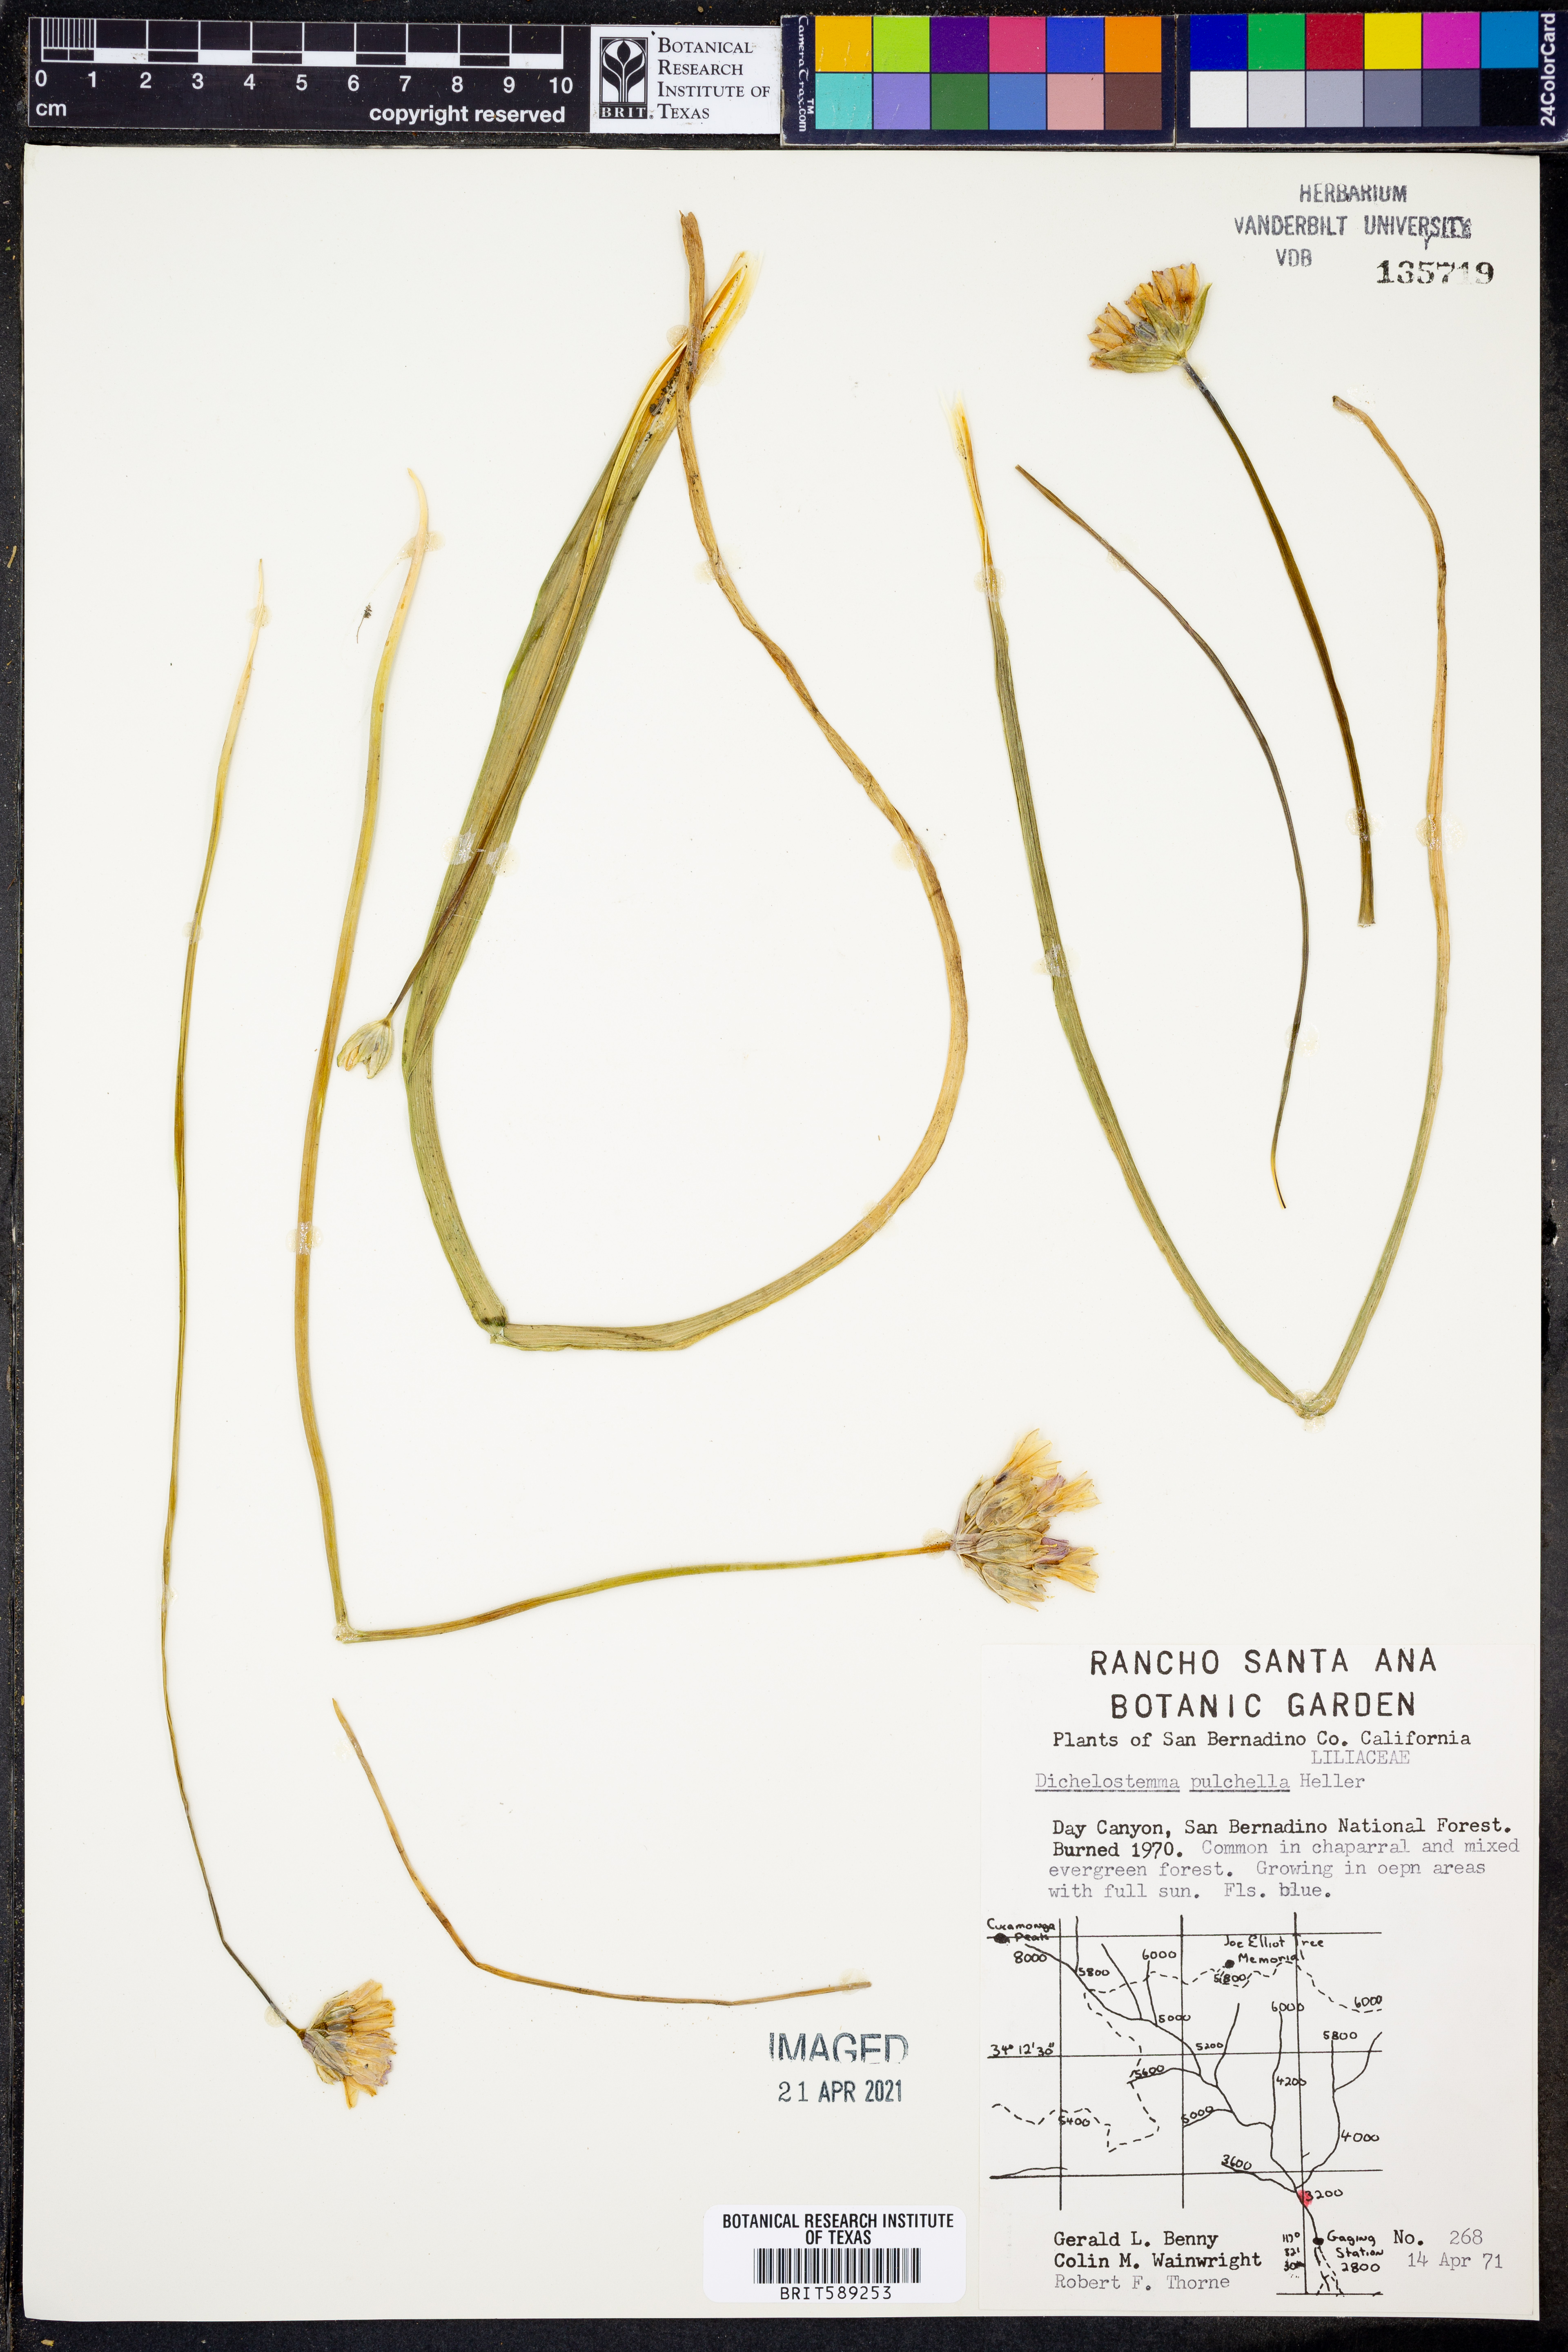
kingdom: Plantae
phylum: Tracheophyta
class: Liliopsida
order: Asparagales
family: Asparagaceae
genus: Dichelostemma
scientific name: Dichelostemma congestum
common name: Fork-tooth ookow
